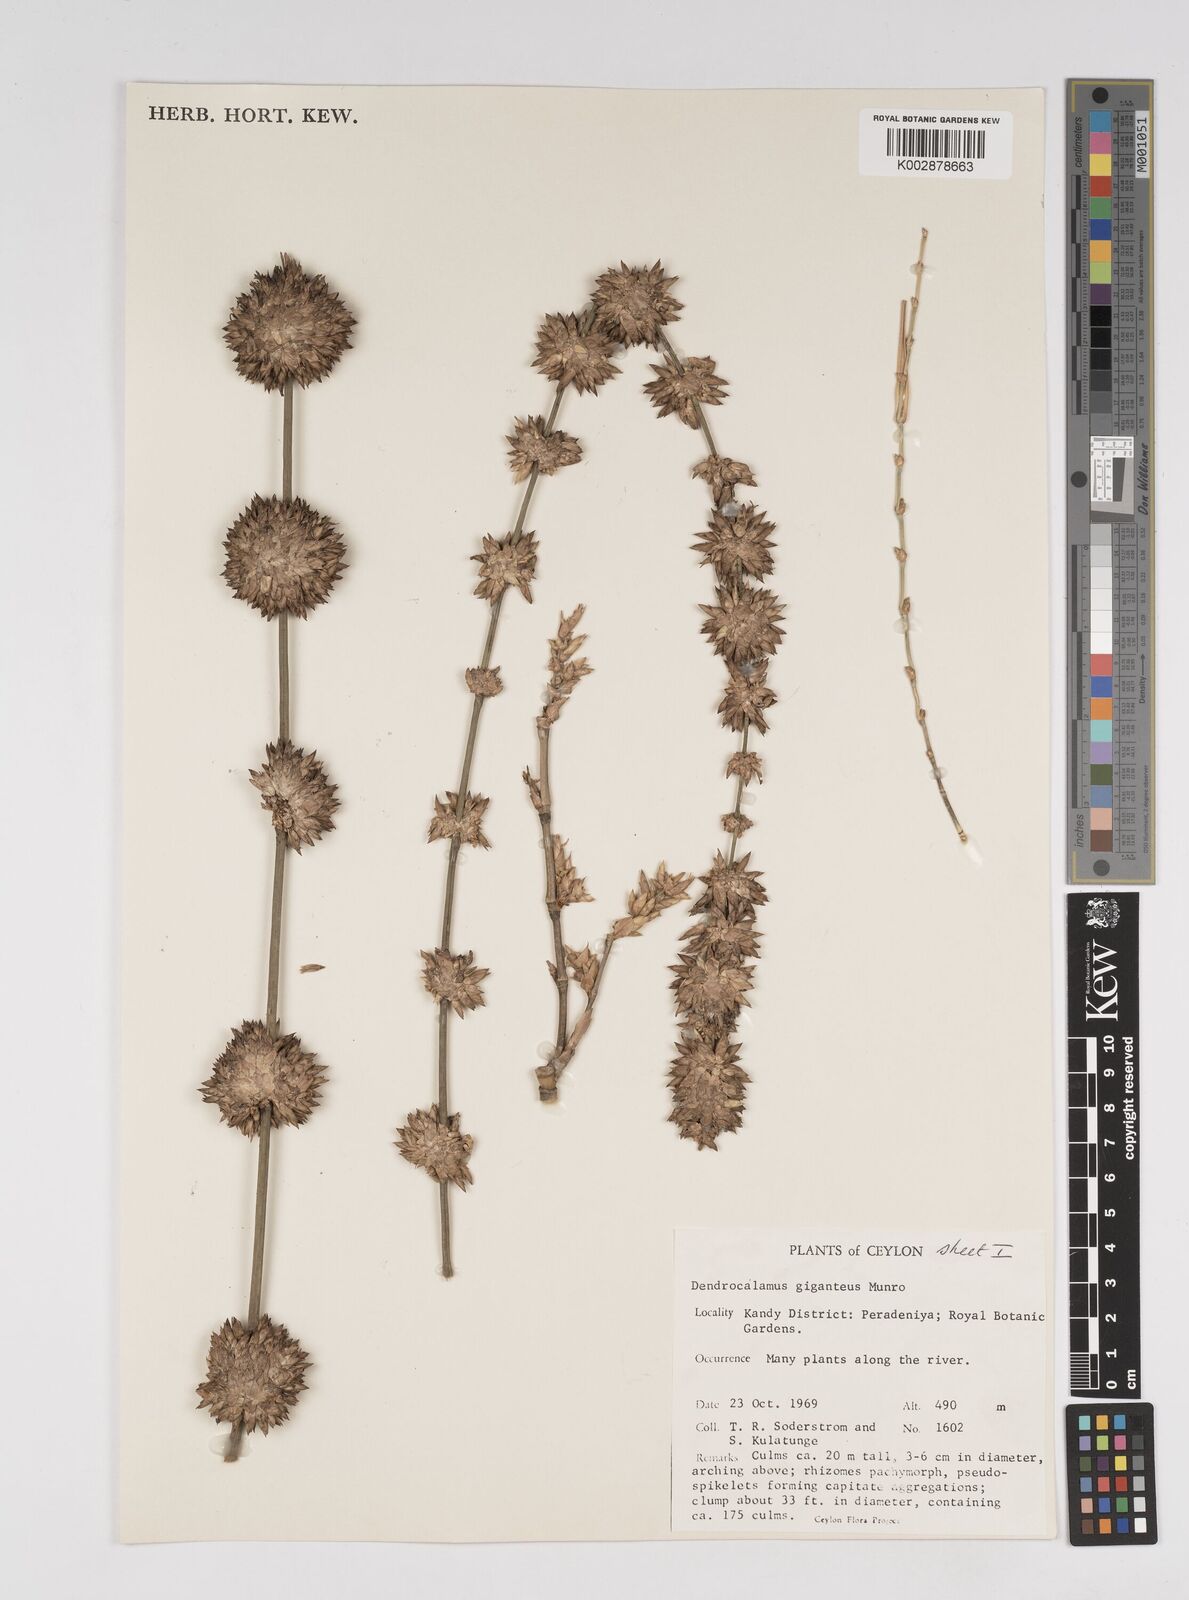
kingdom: Plantae
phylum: Tracheophyta
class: Liliopsida
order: Poales
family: Poaceae
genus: Dendrocalamus
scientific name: Dendrocalamus giganteus
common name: Giant bamboo
